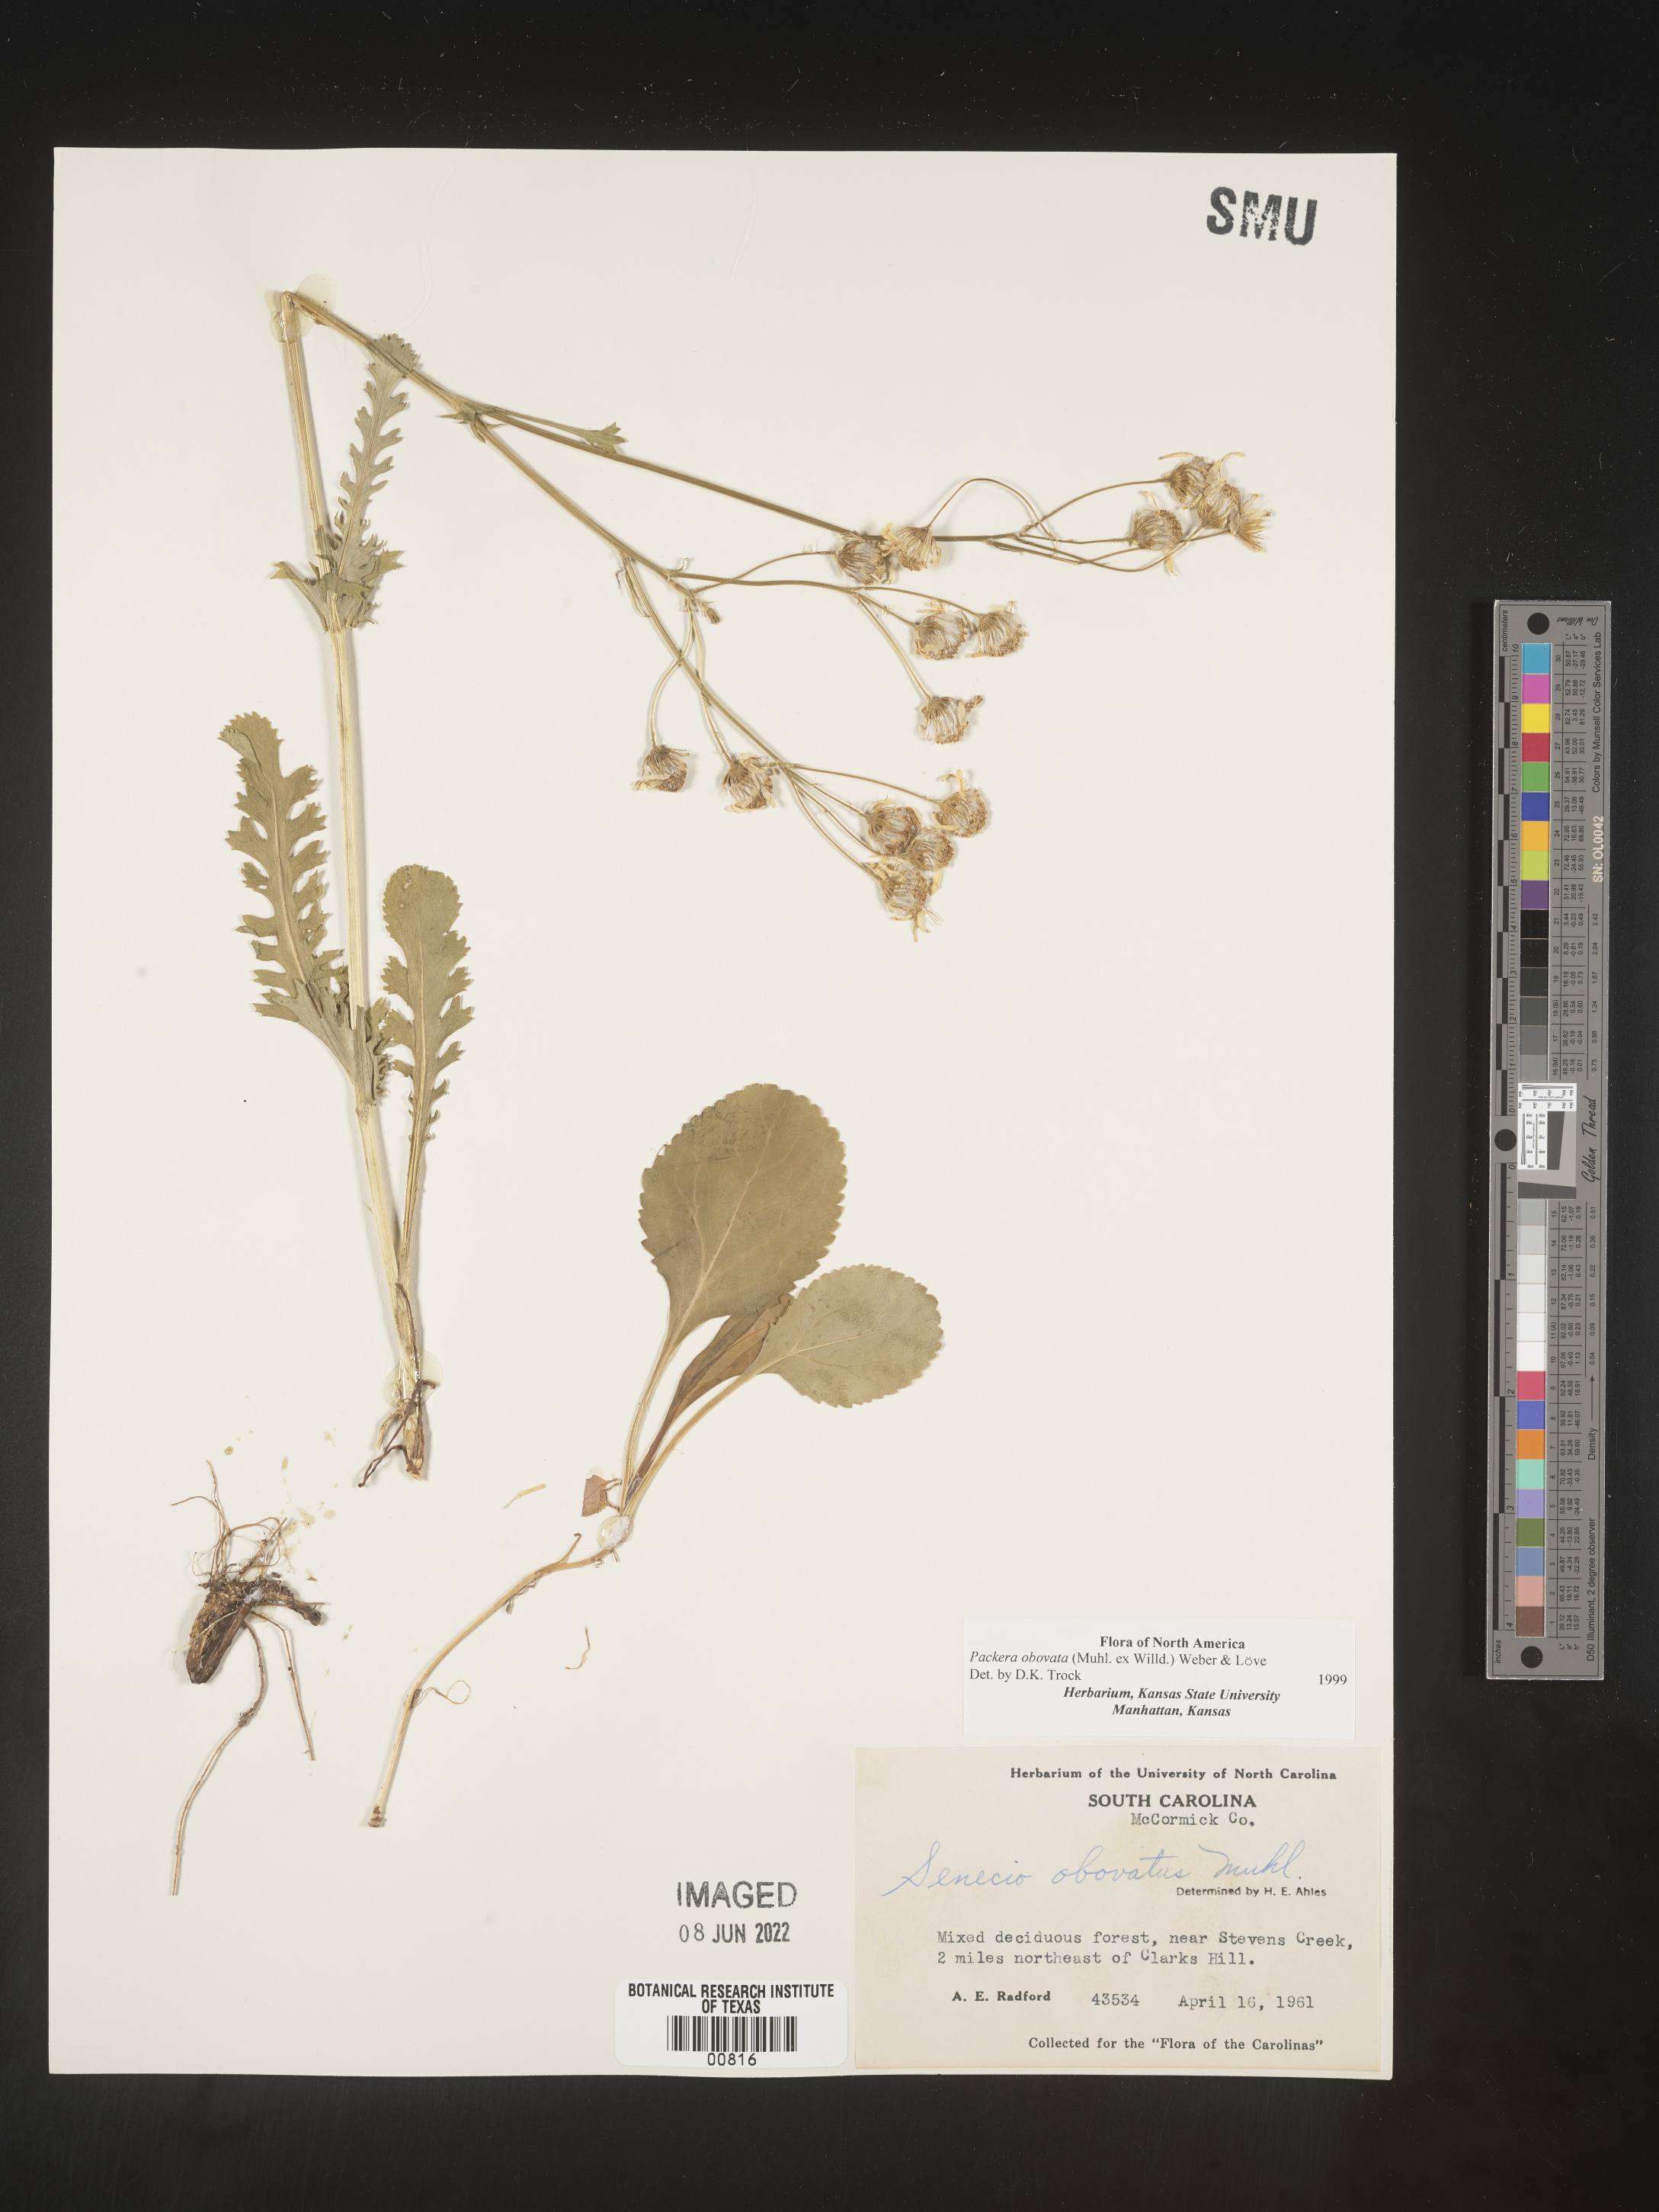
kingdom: Plantae
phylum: Tracheophyta
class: Magnoliopsida
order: Asterales
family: Asteraceae
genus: Packera
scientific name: Packera obovata
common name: Round-leaf ragwort
